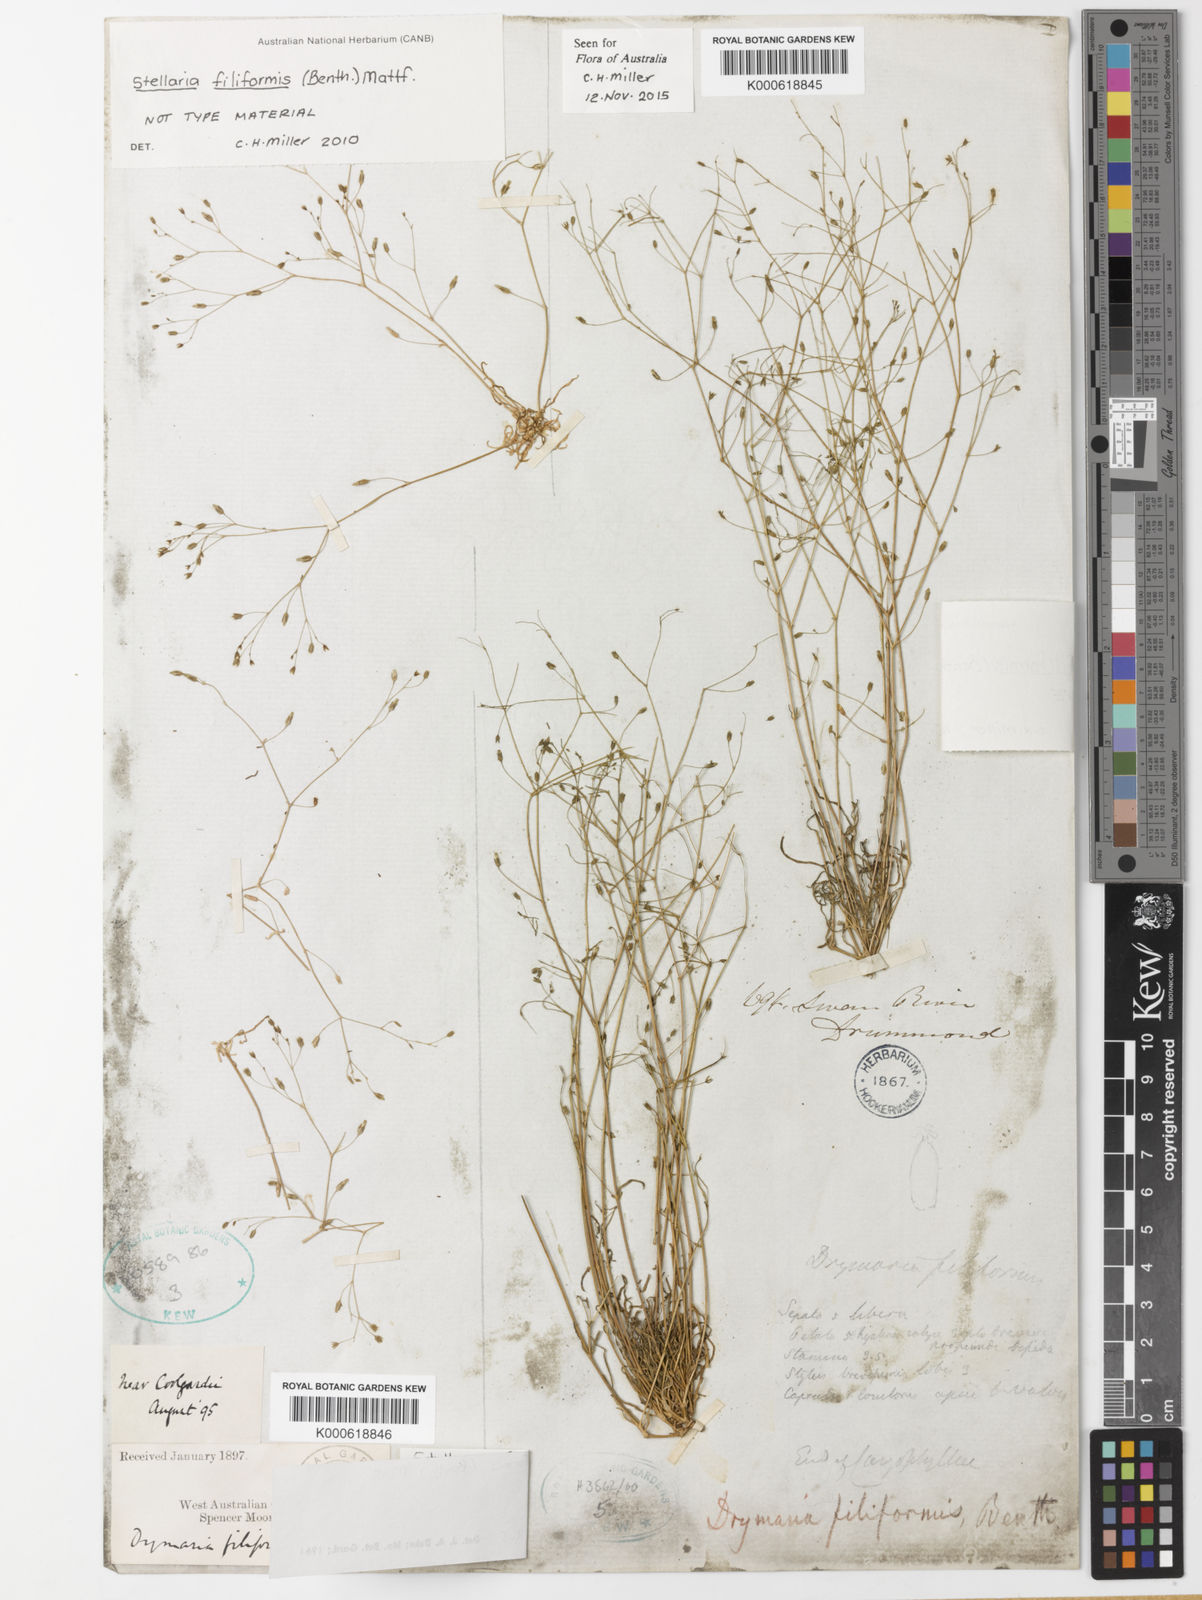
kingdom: Plantae
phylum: Tracheophyta
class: Magnoliopsida
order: Caryophyllales
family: Caryophyllaceae
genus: Stellaria
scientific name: Stellaria filiformis
